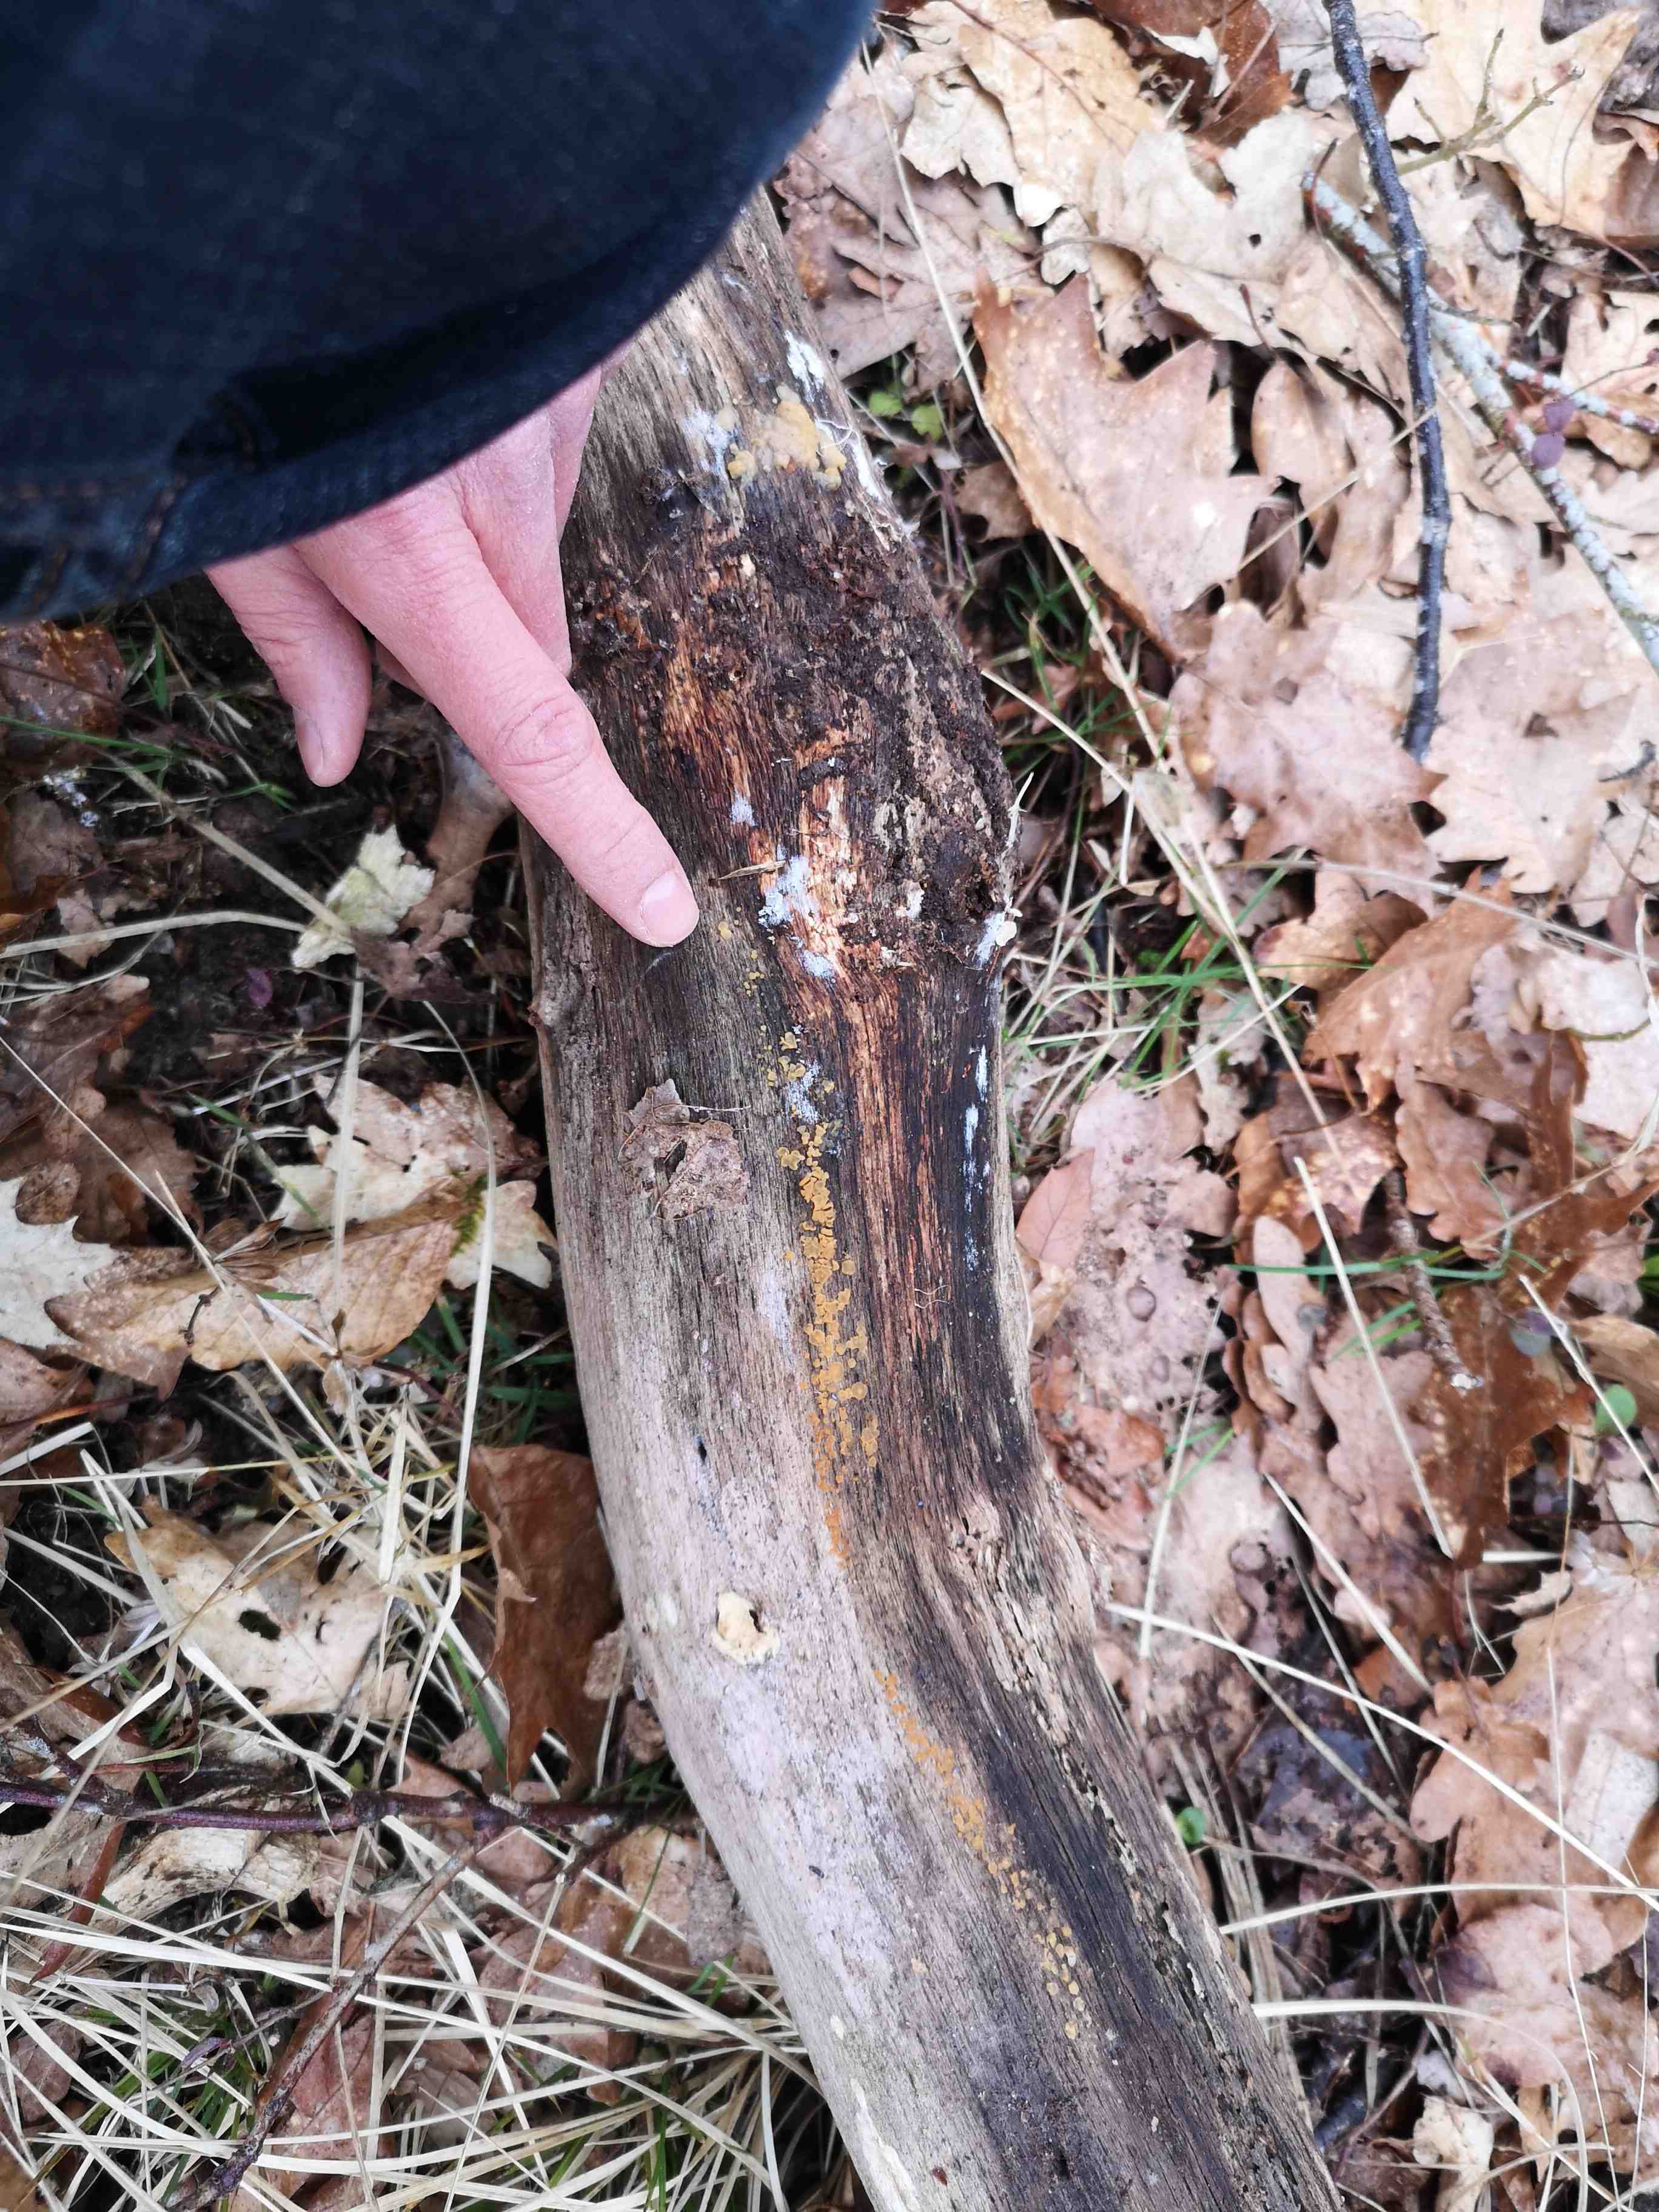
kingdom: Fungi
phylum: Basidiomycota
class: Dacrymycetes
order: Dacrymycetales
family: Dacrymycetaceae
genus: Dacrymyces
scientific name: Dacrymyces lacrymalis
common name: rynket tåresvamp
